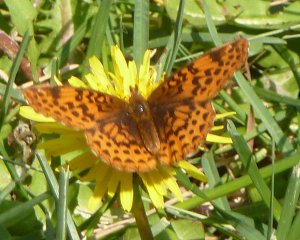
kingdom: Animalia
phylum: Arthropoda
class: Insecta
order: Lepidoptera
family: Nymphalidae
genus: Clossiana
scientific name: Clossiana toddi
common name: Meadow Fritillary
